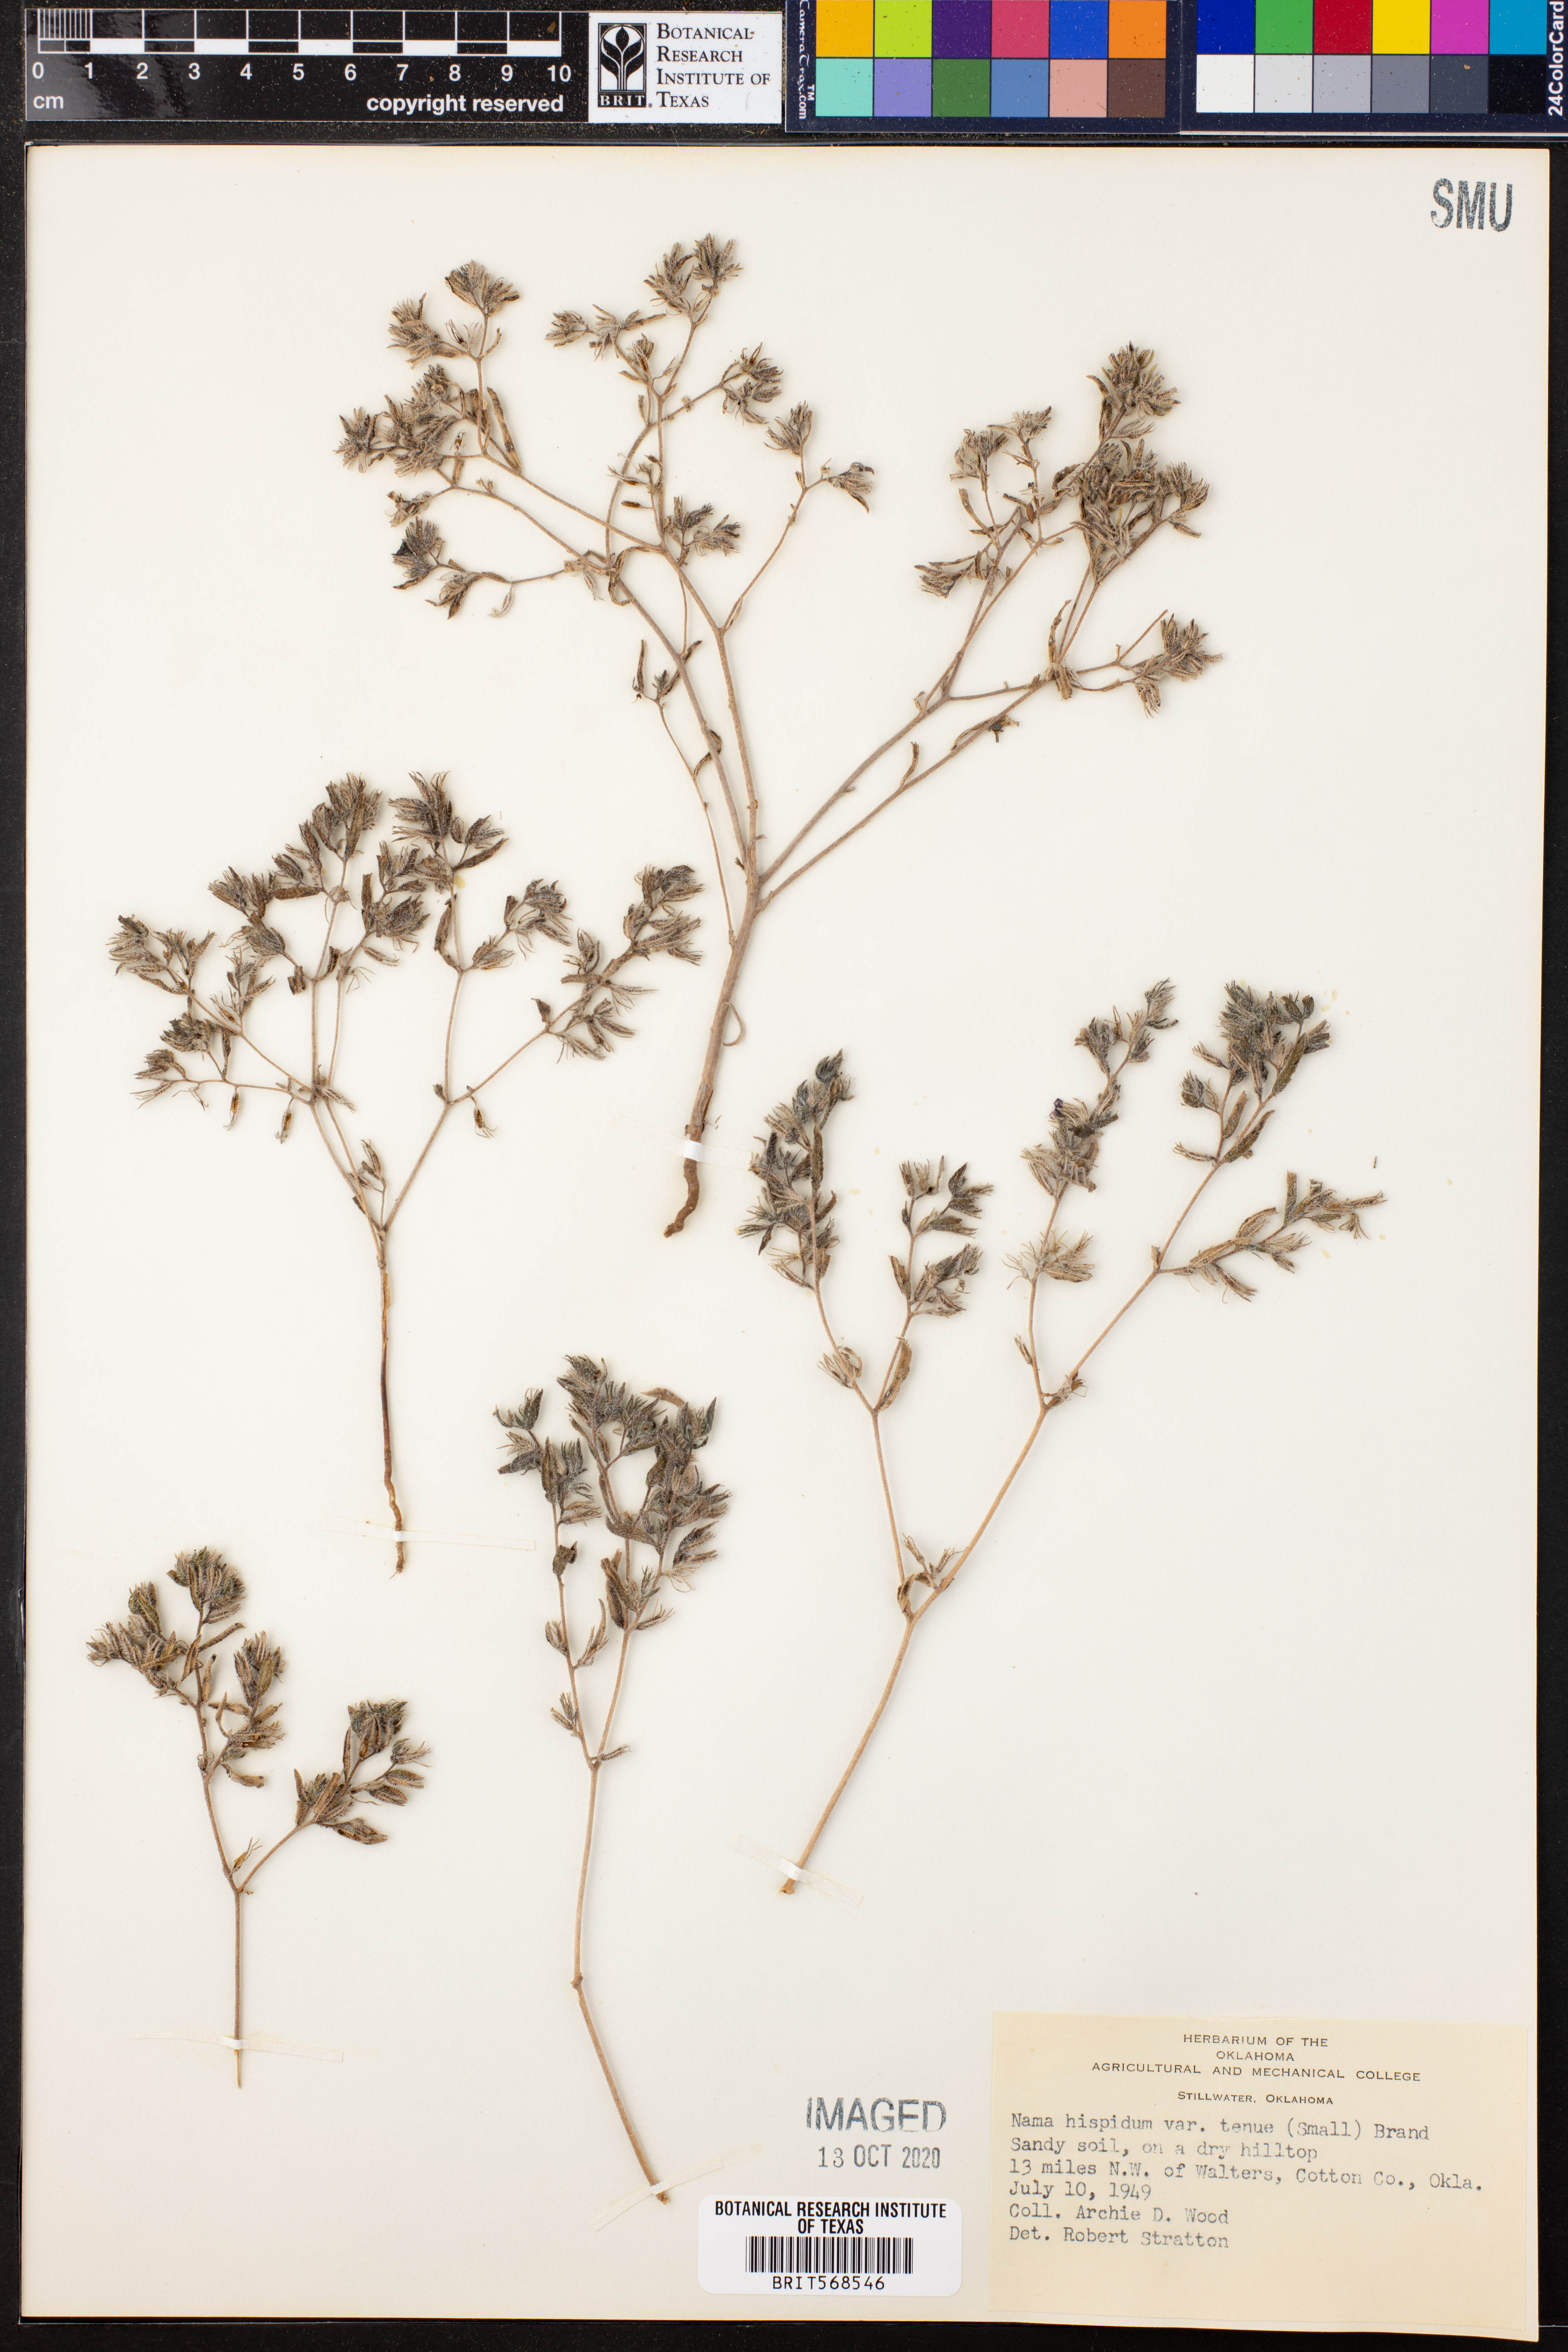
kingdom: Plantae
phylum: Tracheophyta
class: Magnoliopsida
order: Boraginales
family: Namaceae
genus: Nama
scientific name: Nama hispida
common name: Bristly nama
